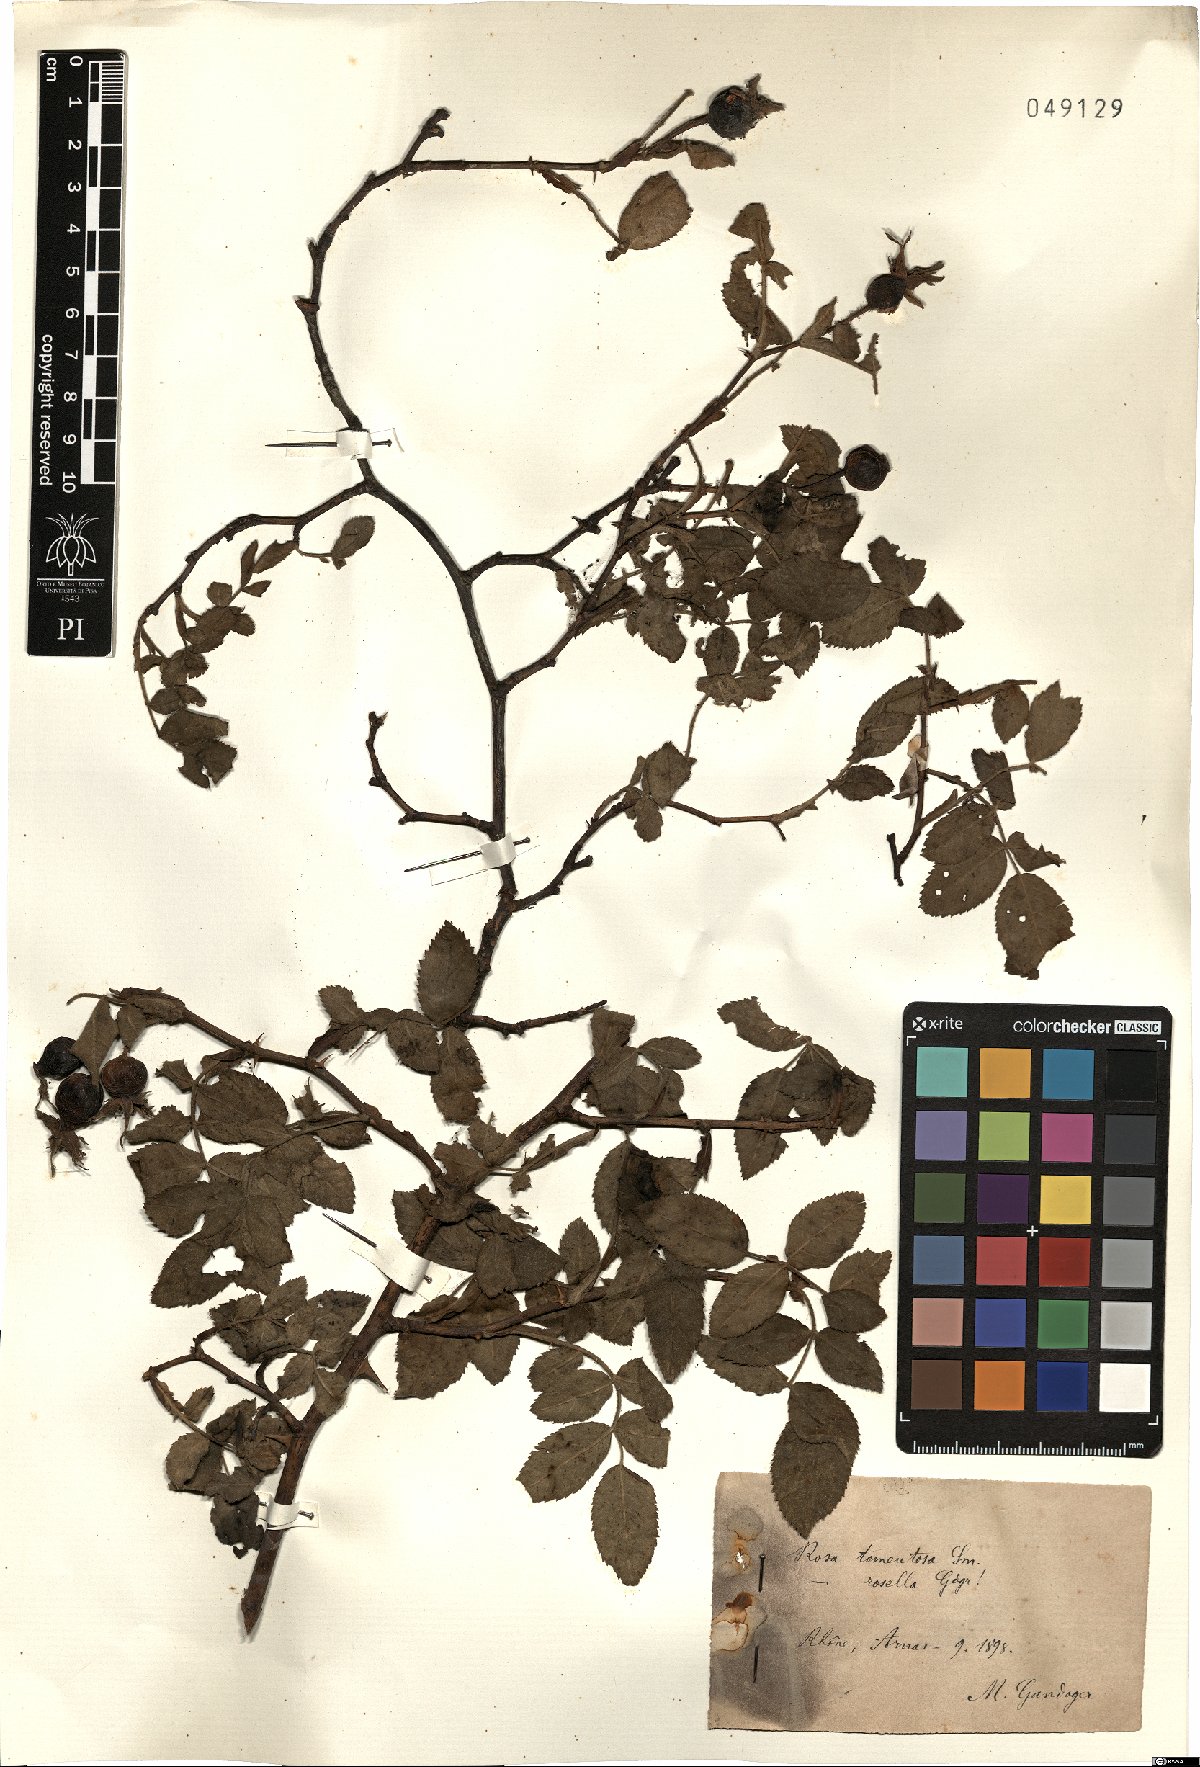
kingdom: Plantae
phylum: Tracheophyta
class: Magnoliopsida
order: Rosales
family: Rosaceae
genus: Rosa
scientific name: Rosa tomentosa
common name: Downy rose
